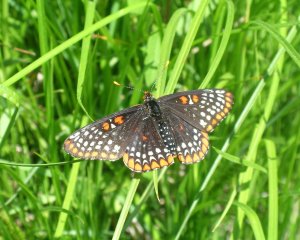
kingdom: Animalia
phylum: Arthropoda
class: Insecta
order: Lepidoptera
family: Nymphalidae
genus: Euphydryas
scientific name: Euphydryas phaeton
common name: Baltimore Checkerspot
